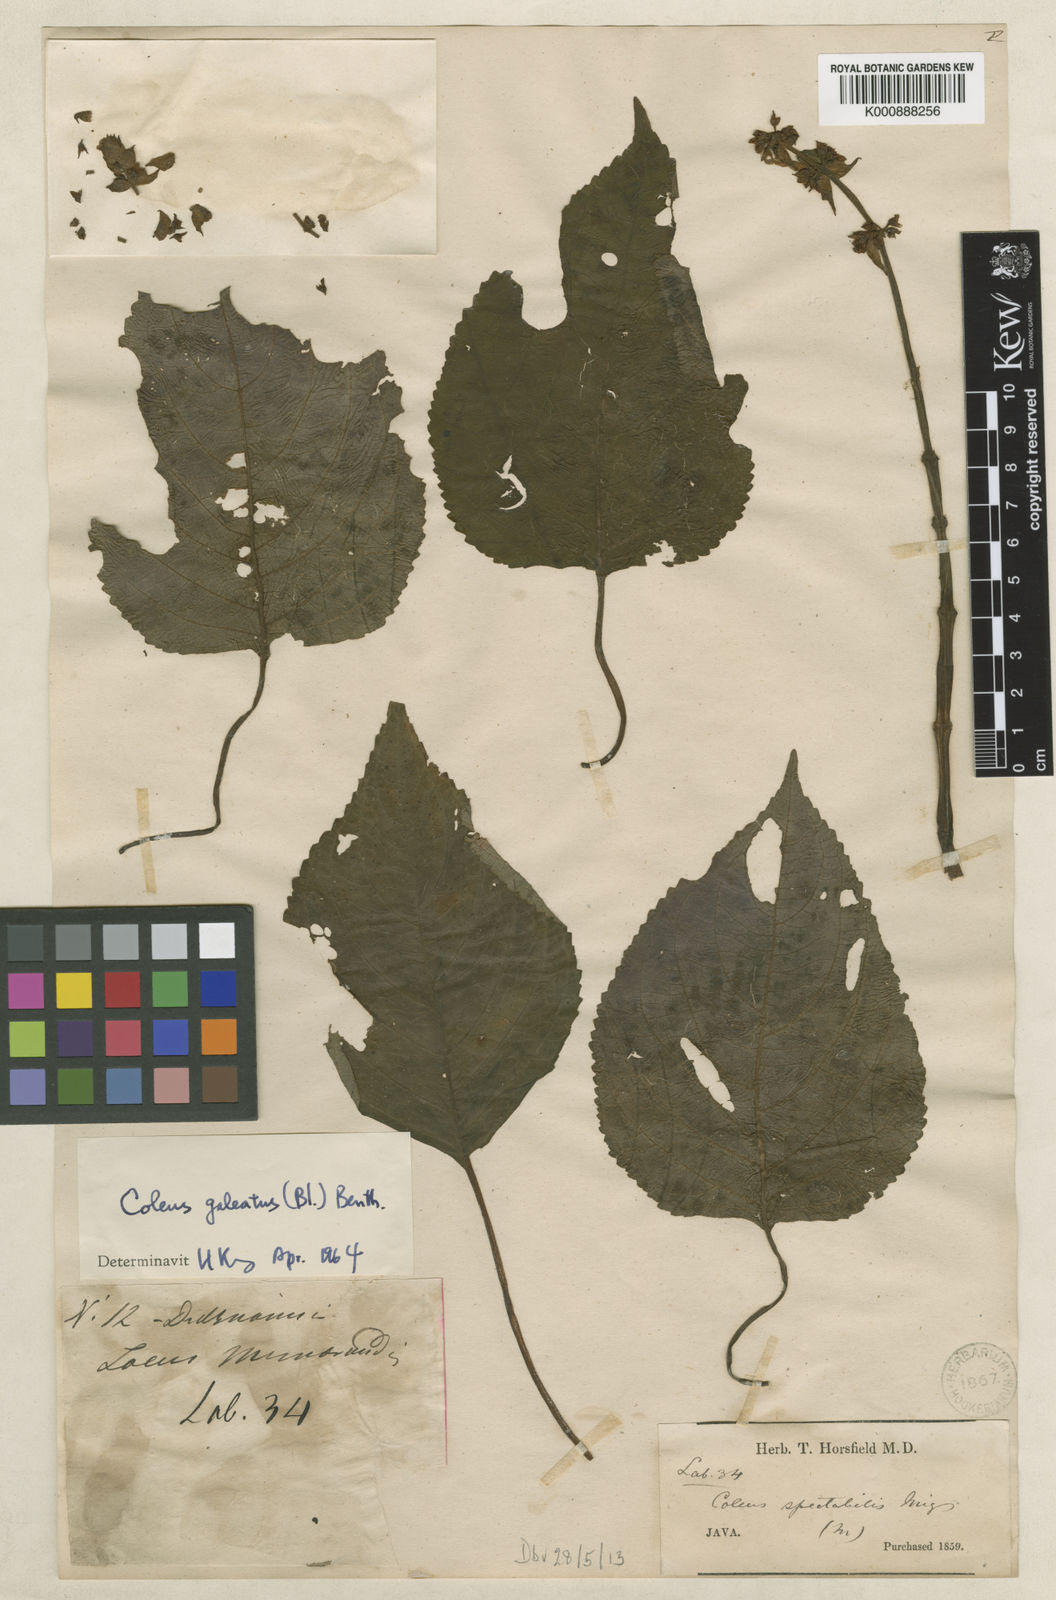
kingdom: Plantae
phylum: Tracheophyta
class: Magnoliopsida
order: Lamiales
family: Lamiaceae
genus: Coleus
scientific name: Coleus galeatus
